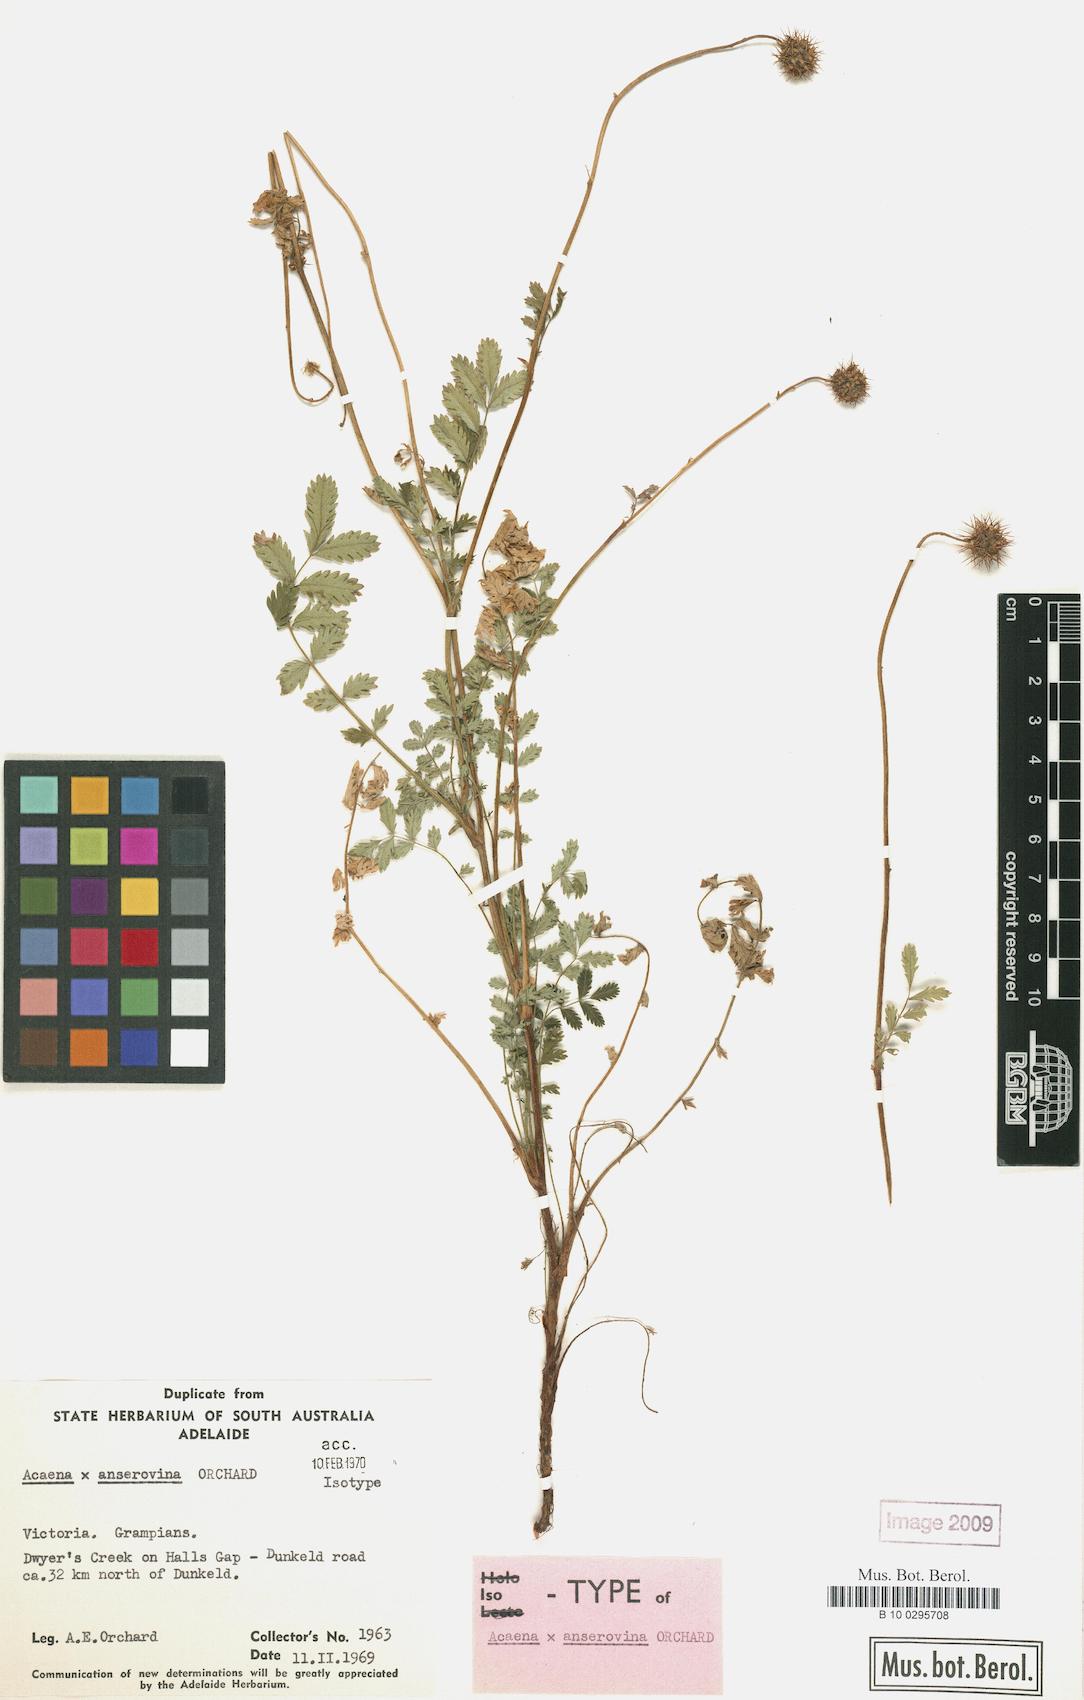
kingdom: Plantae
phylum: Tracheophyta
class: Magnoliopsida
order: Rosales
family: Rosaceae
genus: Acaena
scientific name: Acaena anserovina
